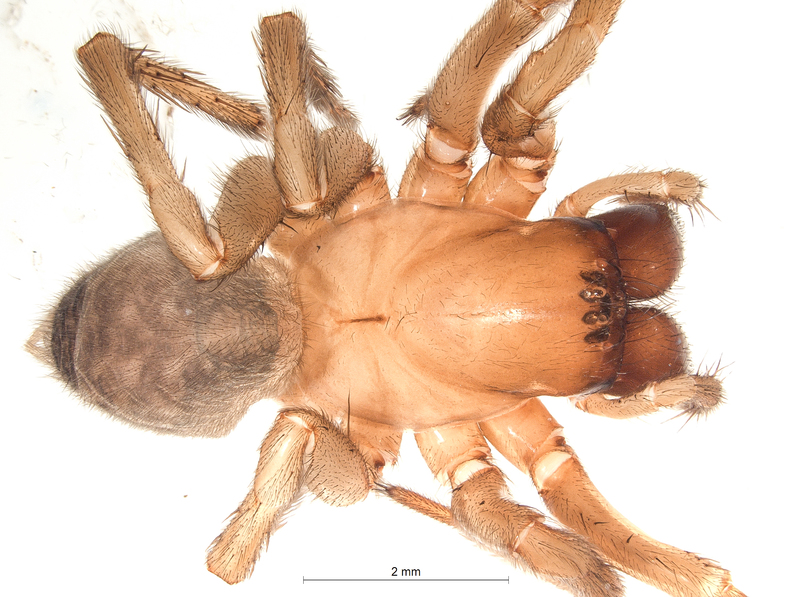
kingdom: Animalia
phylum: Arthropoda
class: Arachnida
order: Araneae
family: Agelenidae
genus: Inermocoelotes
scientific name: Inermocoelotes inermis
